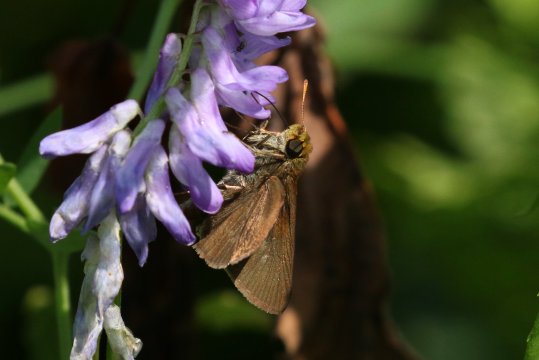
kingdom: Animalia
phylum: Arthropoda
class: Insecta
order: Lepidoptera
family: Hesperiidae
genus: Euphyes
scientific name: Euphyes vestris
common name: Dun Skipper
